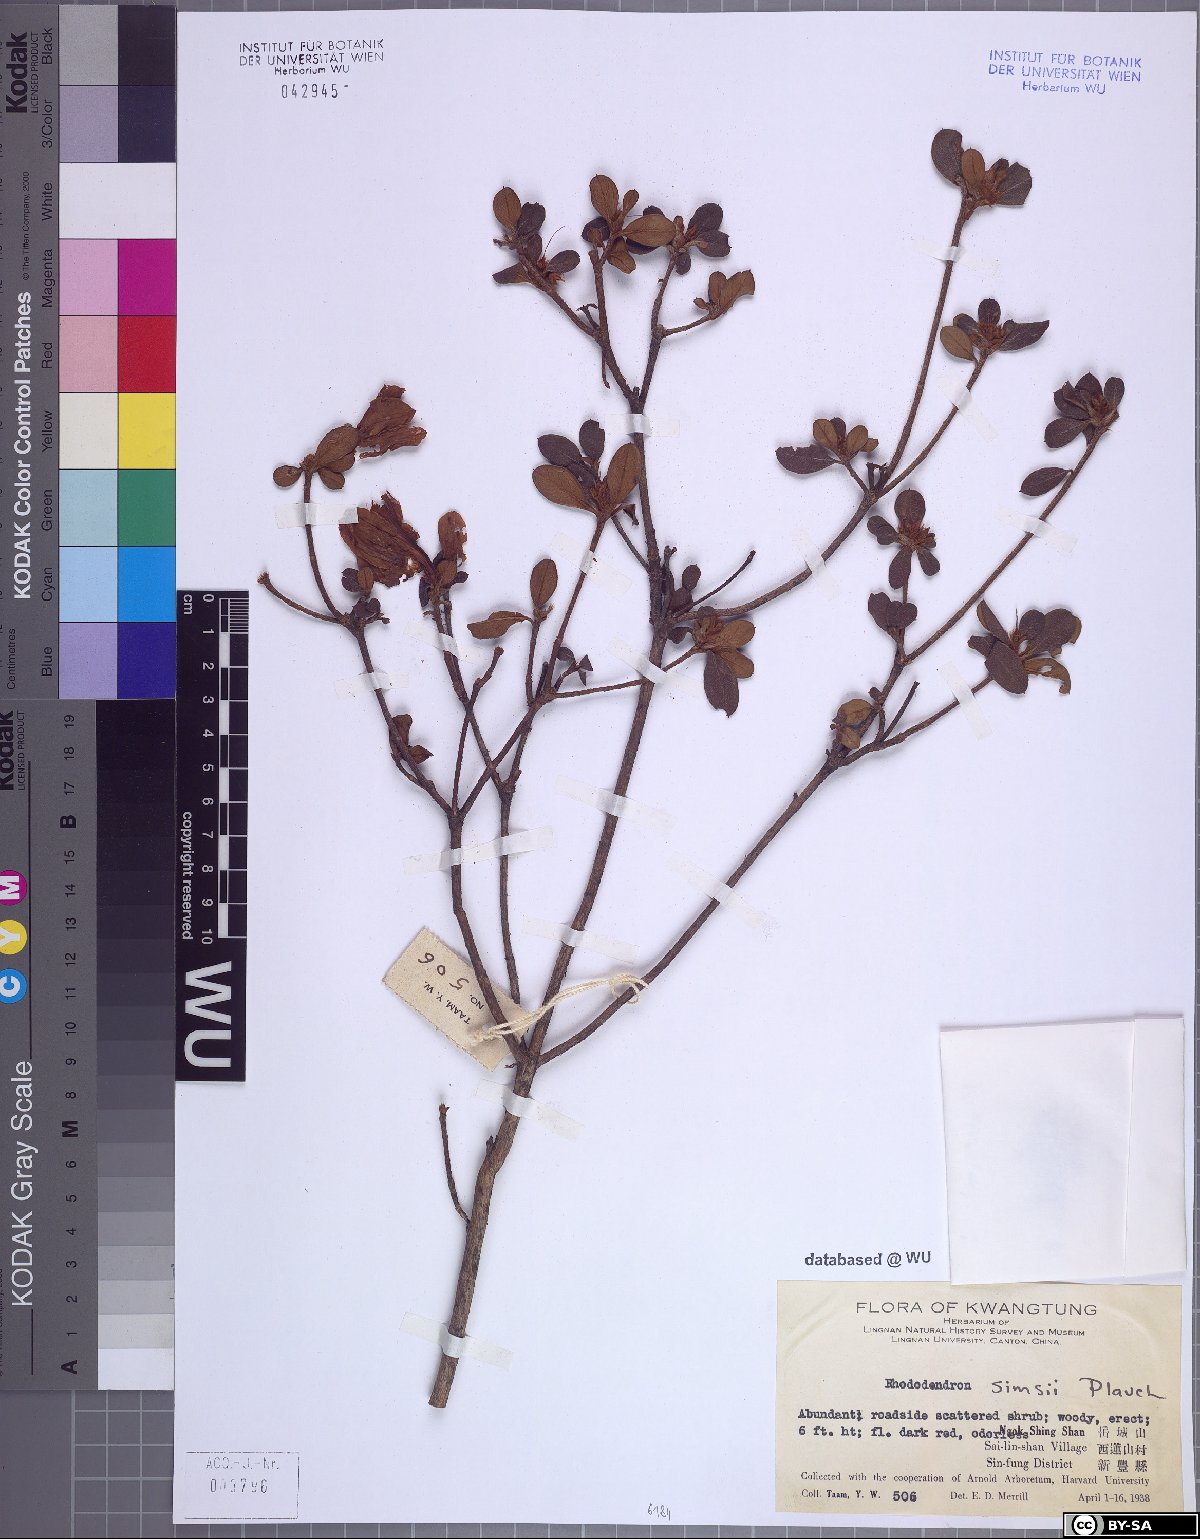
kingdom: Plantae
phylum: Tracheophyta
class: Magnoliopsida
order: Ericales
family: Ericaceae
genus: Rhododendron
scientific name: Rhododendron simsii
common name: Rhododendron
